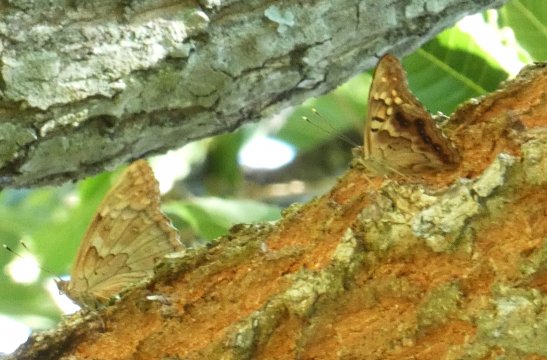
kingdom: Animalia
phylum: Arthropoda
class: Insecta
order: Lepidoptera
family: Nymphalidae
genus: Asterocampa
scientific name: Asterocampa clyton
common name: Tawny Emperor
